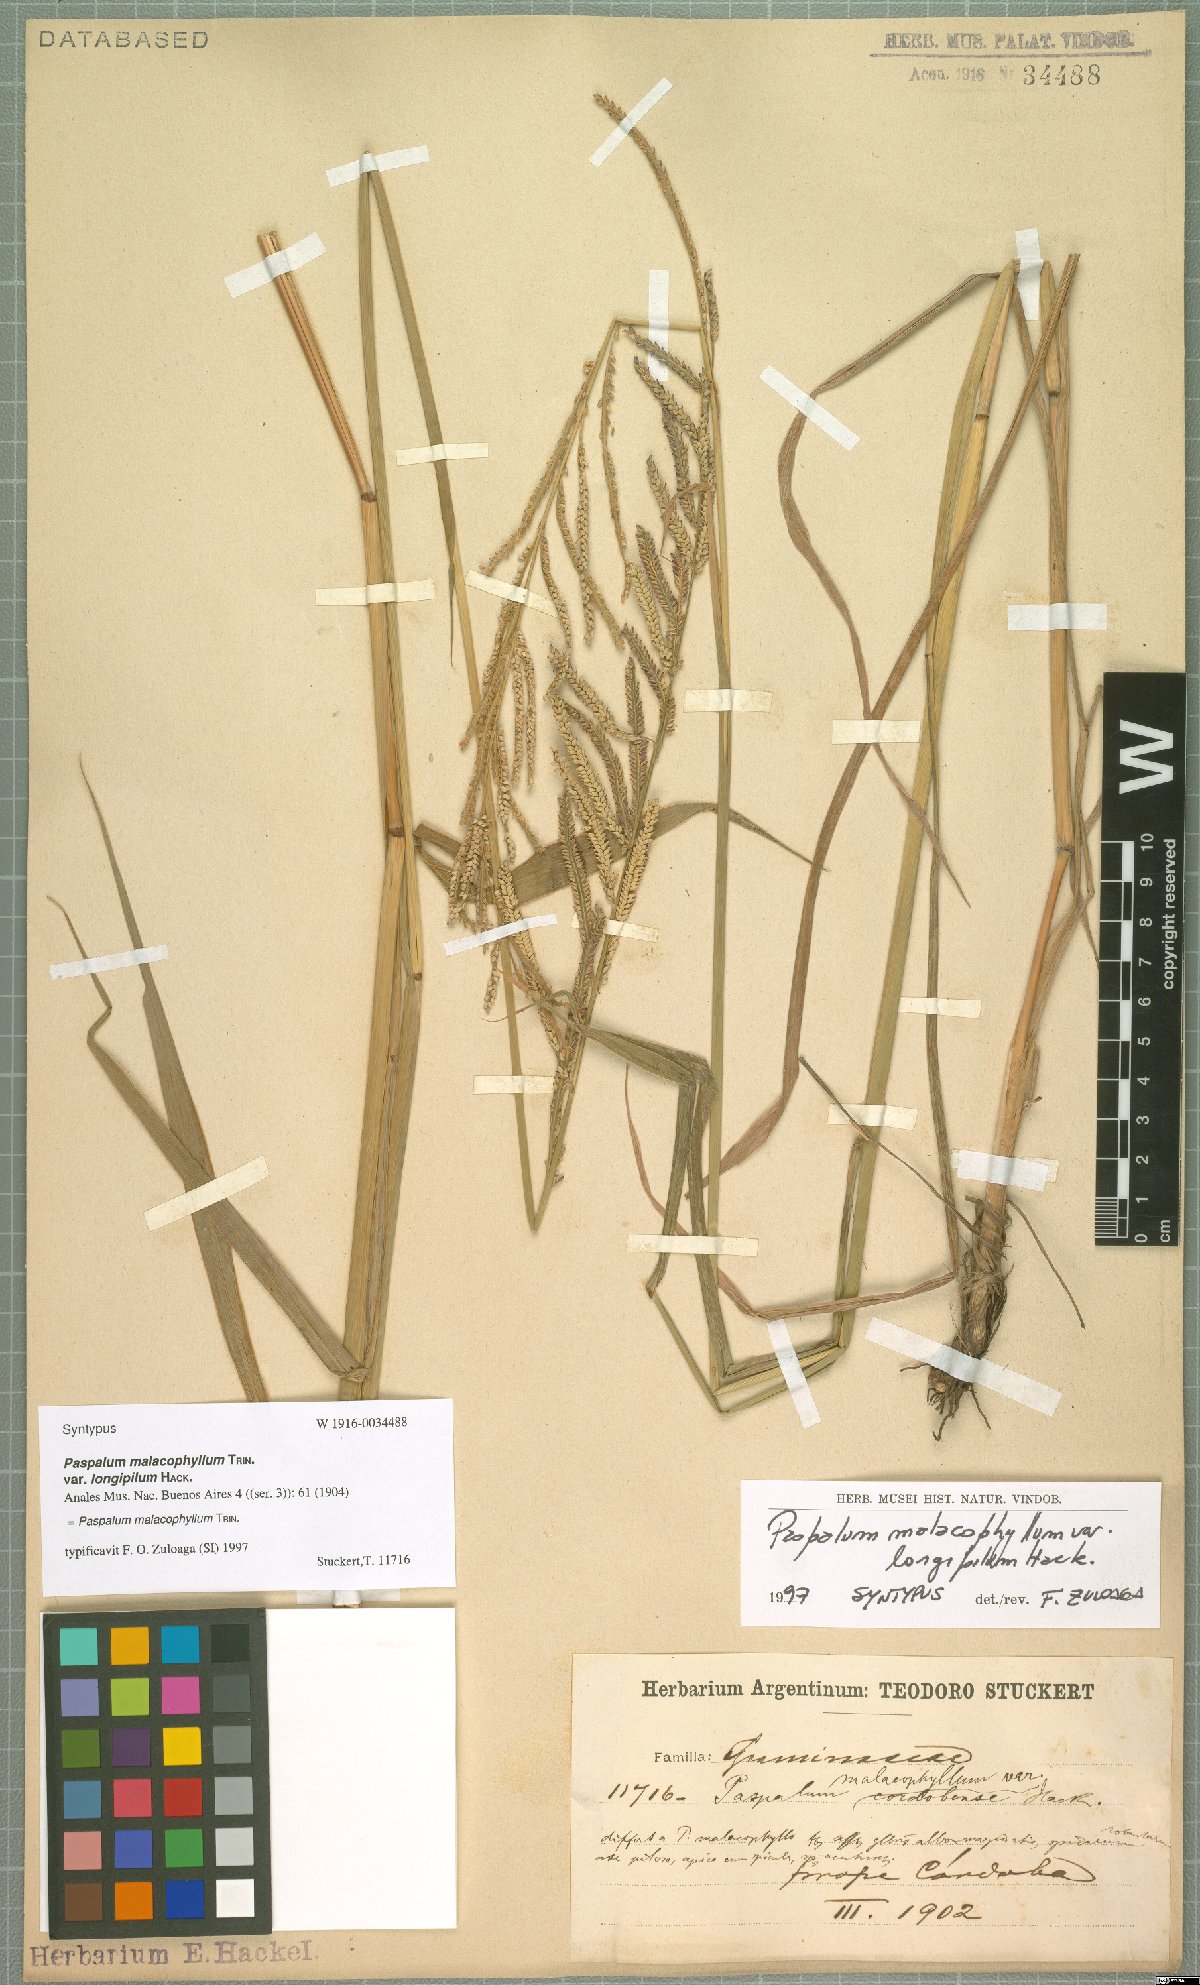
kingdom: Plantae
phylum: Tracheophyta
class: Liliopsida
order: Poales
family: Poaceae
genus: Paspalum
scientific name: Paspalum malacophyllum
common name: Ribbed paspalum
